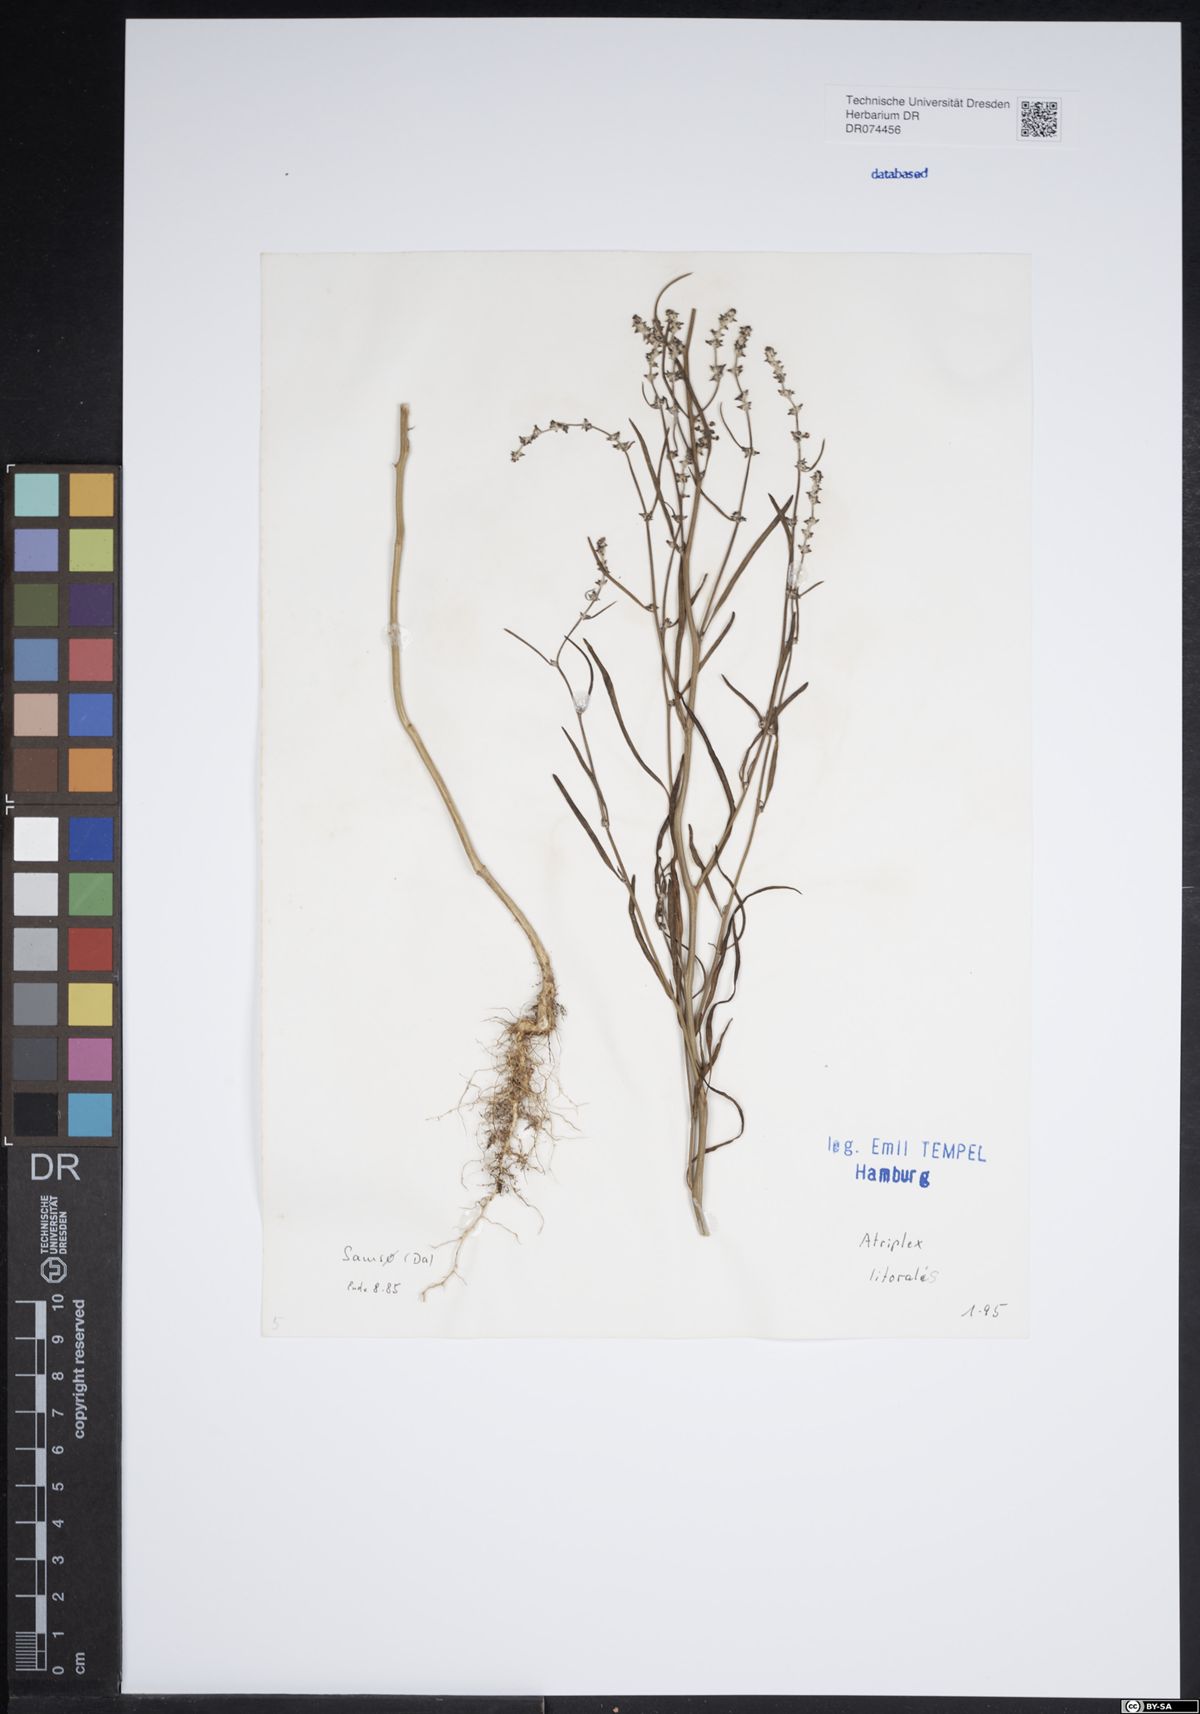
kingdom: Plantae
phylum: Tracheophyta
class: Magnoliopsida
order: Caryophyllales
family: Amaranthaceae
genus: Atriplex
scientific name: Atriplex littoralis
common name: Grass-leaved orache
